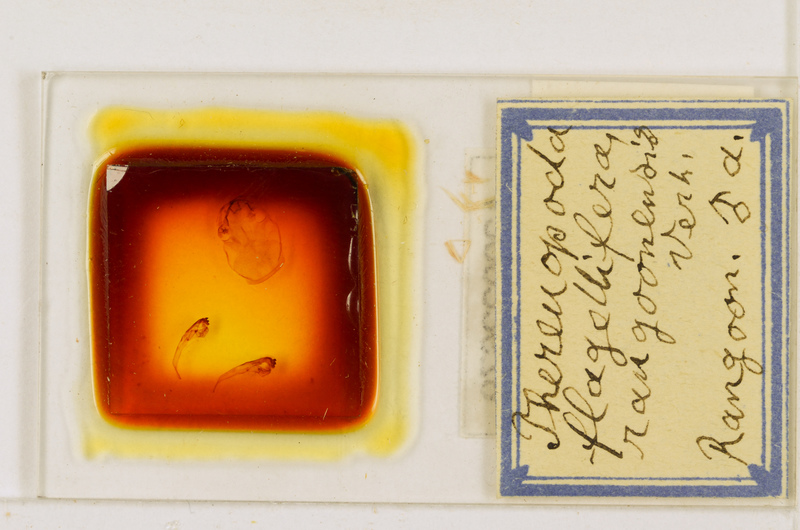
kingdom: Animalia
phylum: Arthropoda
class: Chilopoda
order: Scutigeromorpha
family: Scutigeridae
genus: Thereuopoda
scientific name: Thereuopoda longicornis
